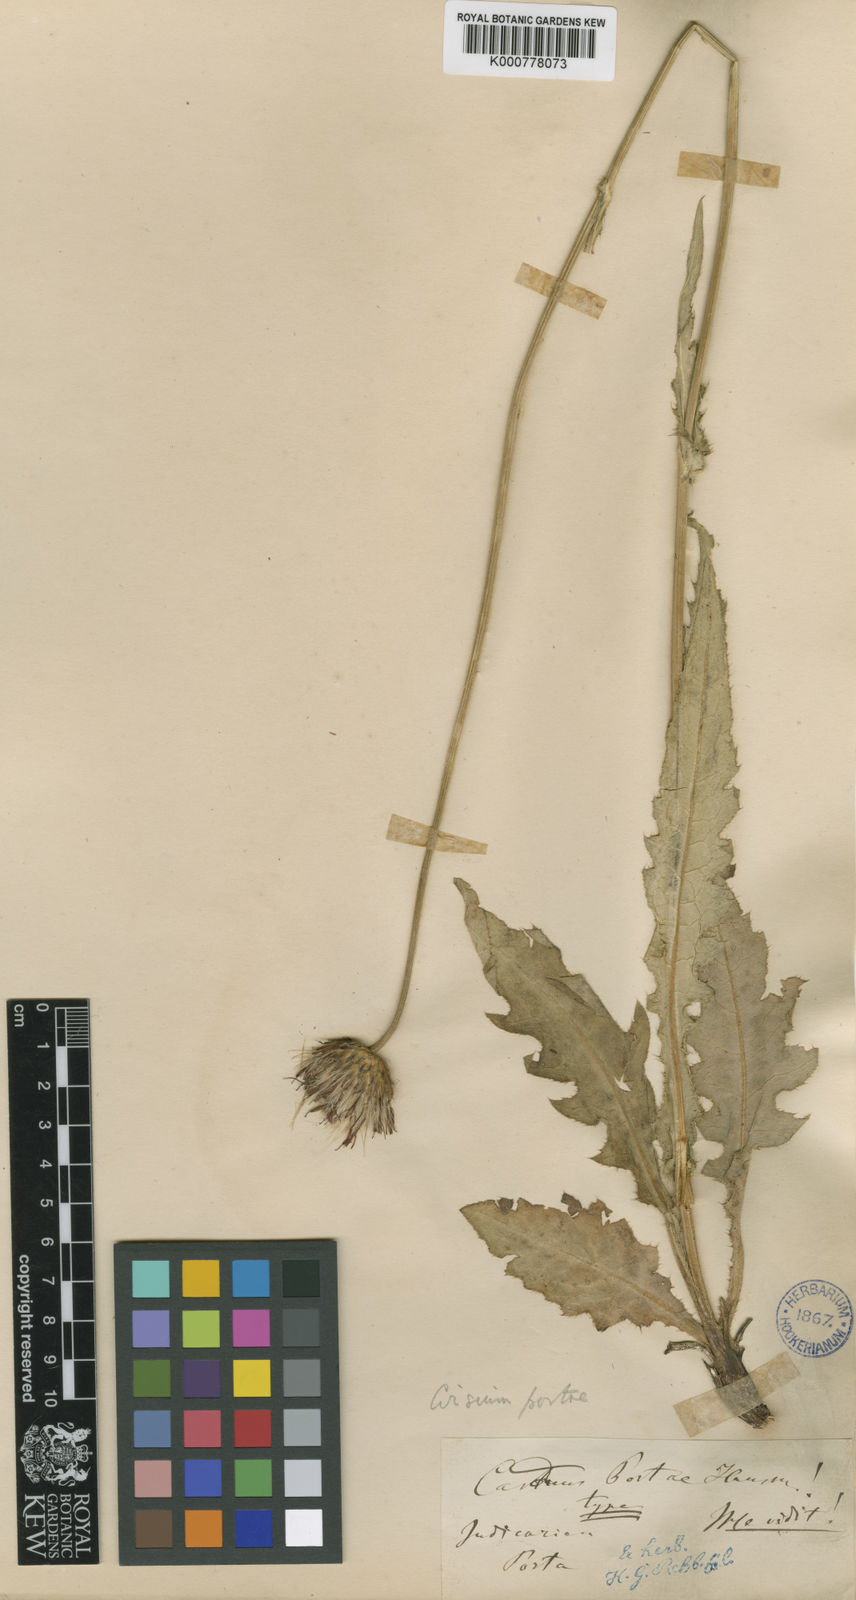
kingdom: Plantae
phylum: Tracheophyta
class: Magnoliopsida
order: Asterales
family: Asteraceae
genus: Cirsium
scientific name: Cirsium erisithales
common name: Yellow thistle
